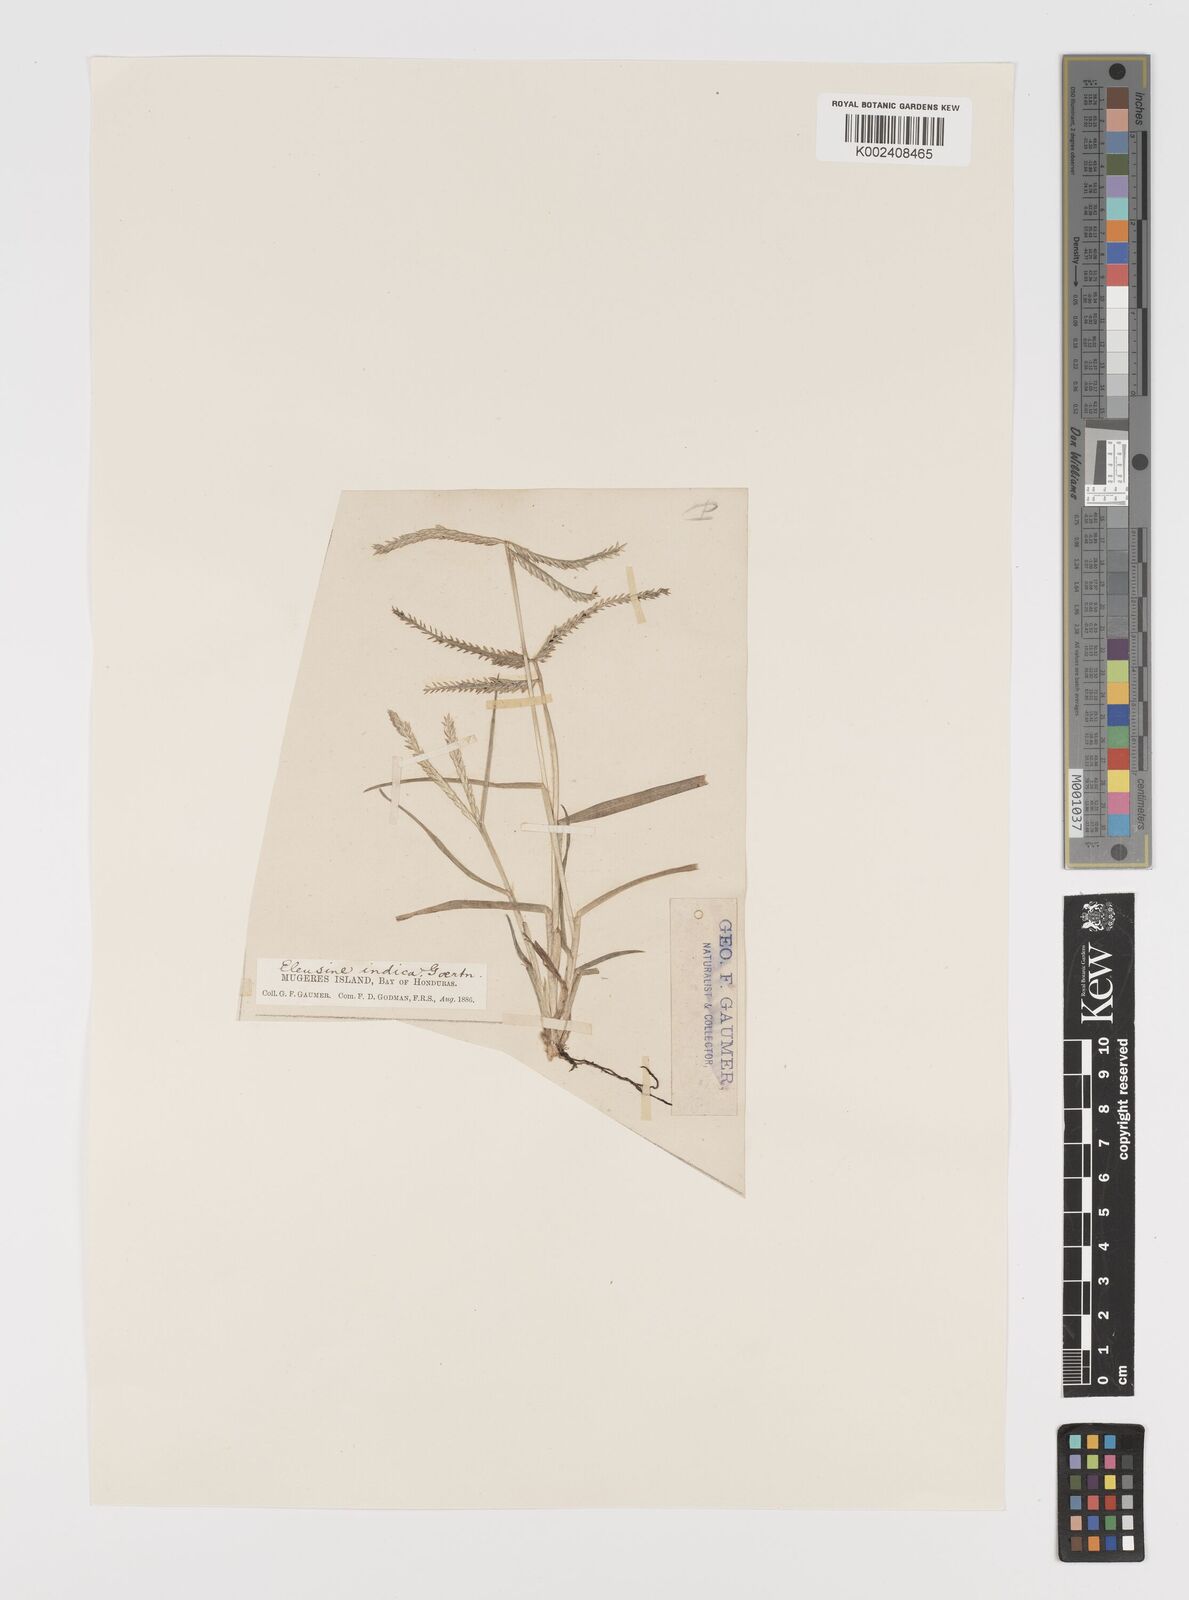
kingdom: Plantae
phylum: Tracheophyta
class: Liliopsida
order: Poales
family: Poaceae
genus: Eleusine
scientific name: Eleusine indica
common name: Yard-grass
